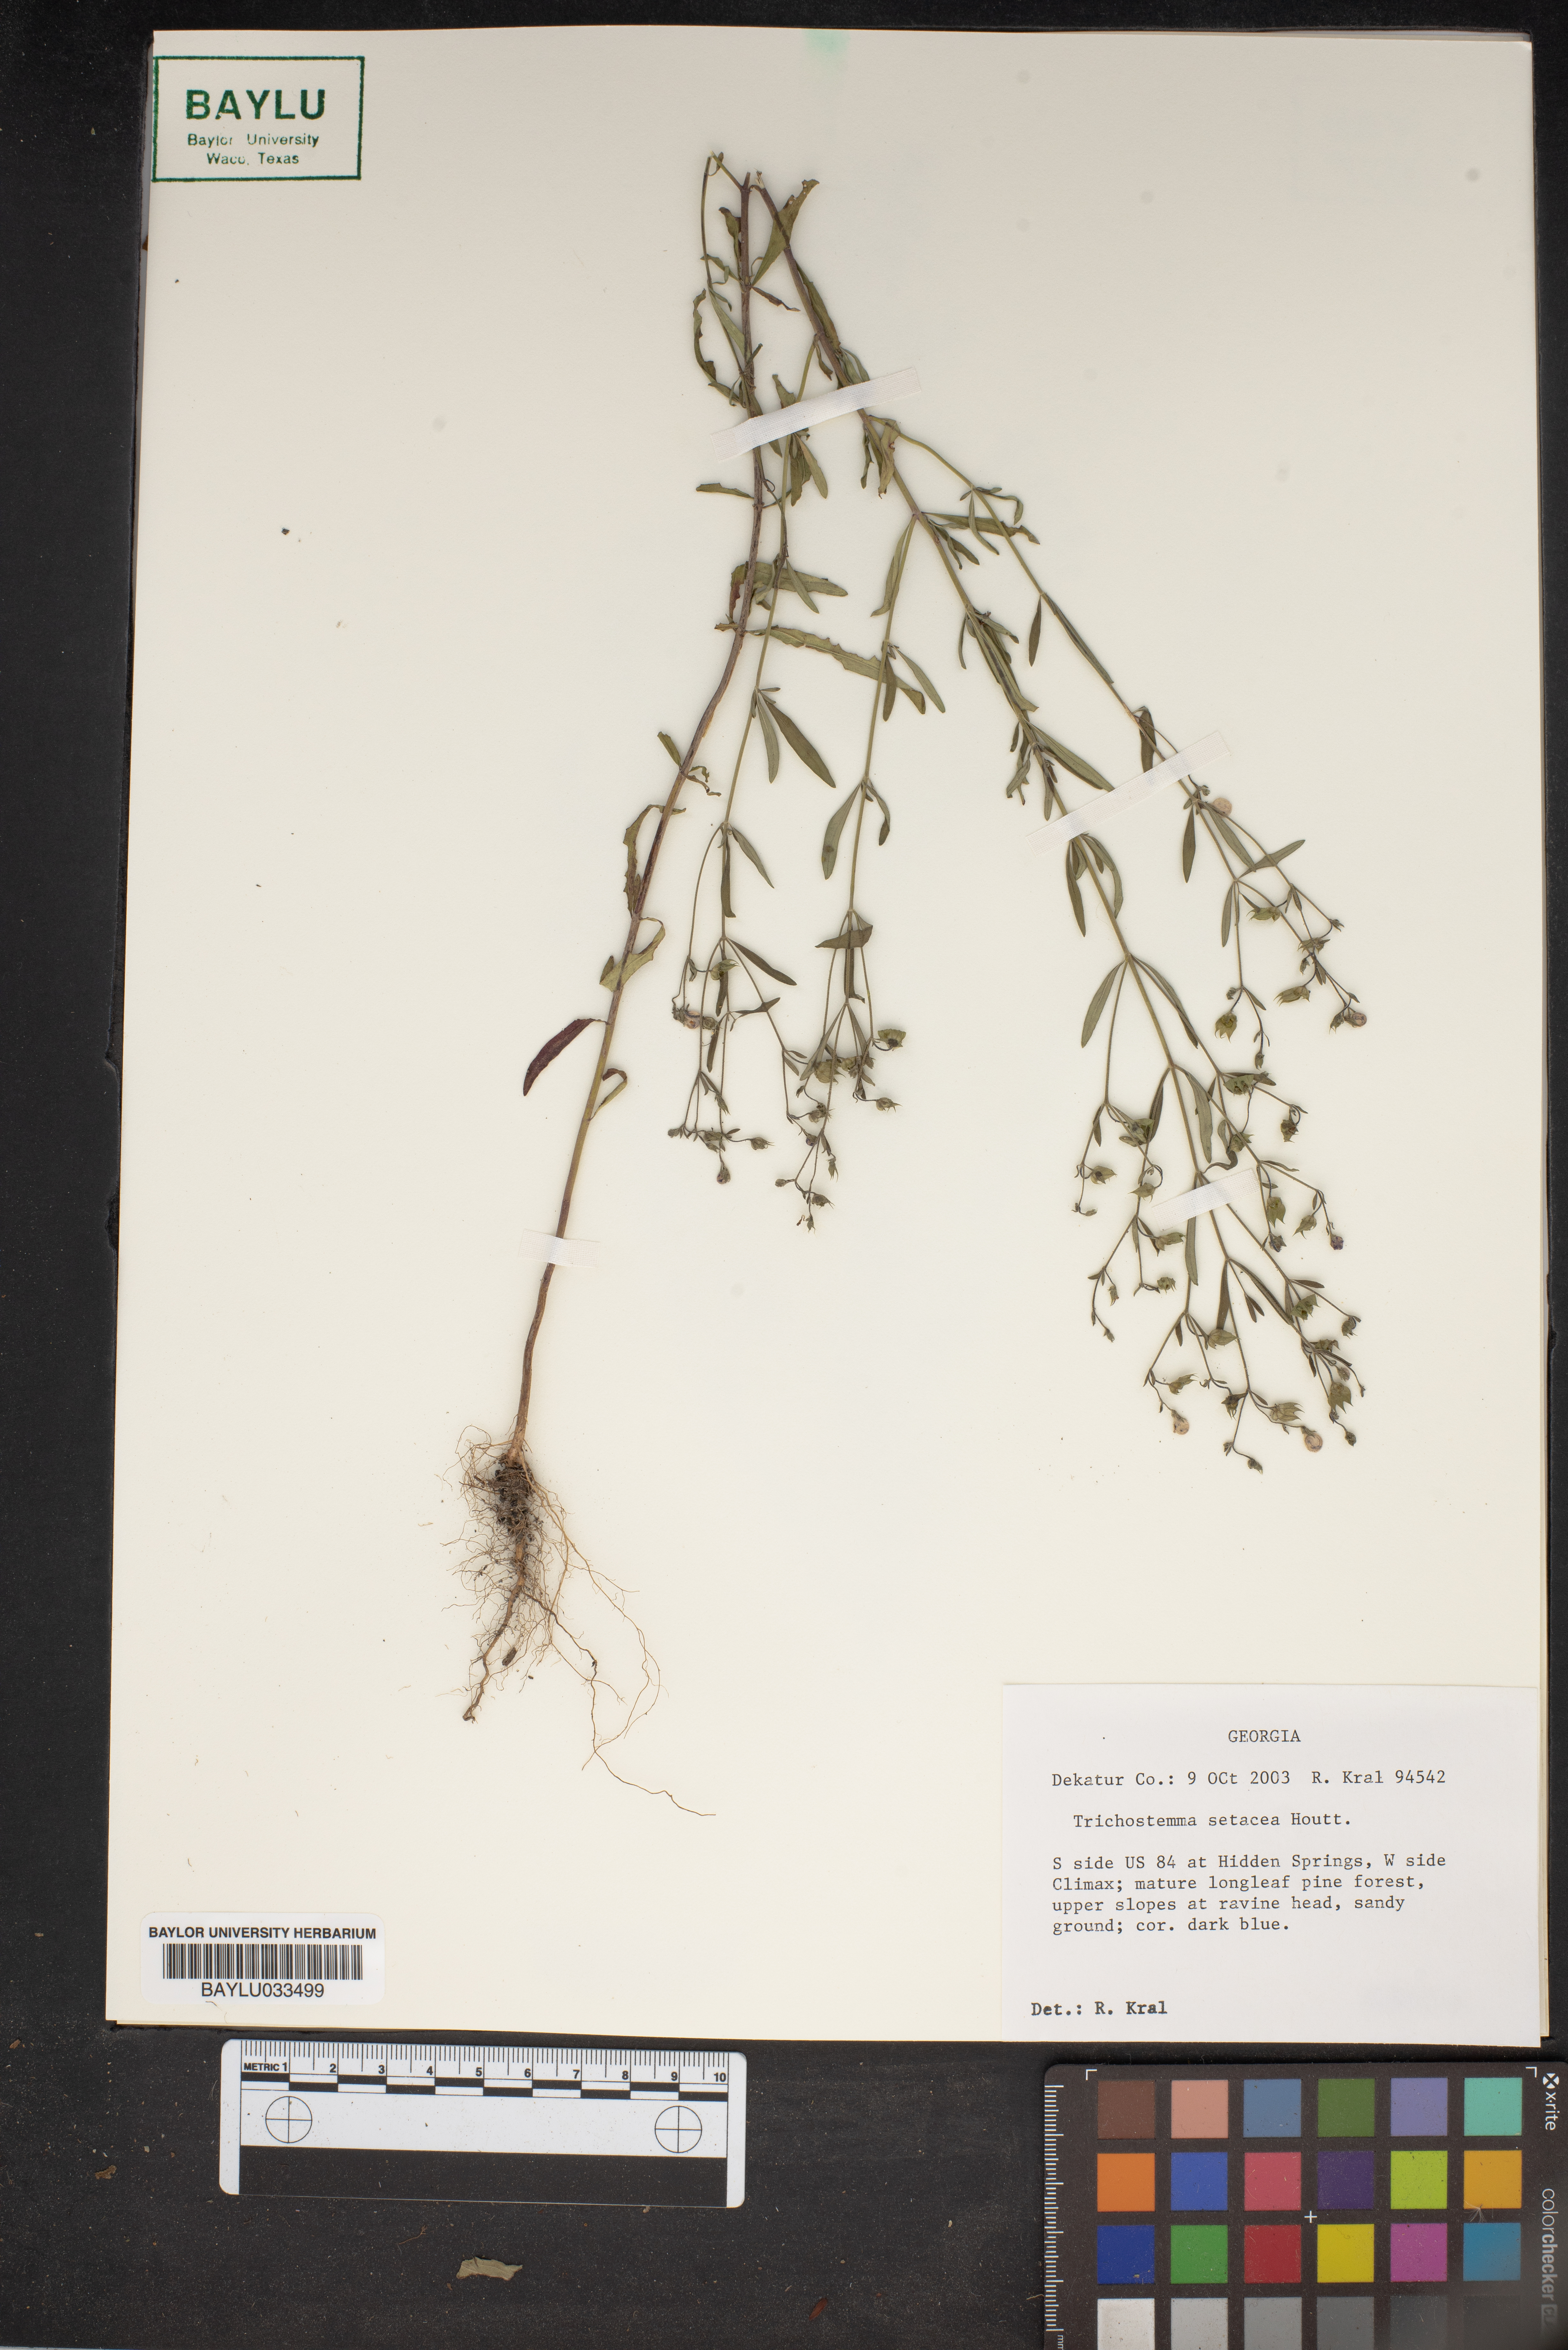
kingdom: Plantae
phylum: Tracheophyta
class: Magnoliopsida
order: Lamiales
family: Lamiaceae
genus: Trichostema
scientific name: Trichostema setaceum
